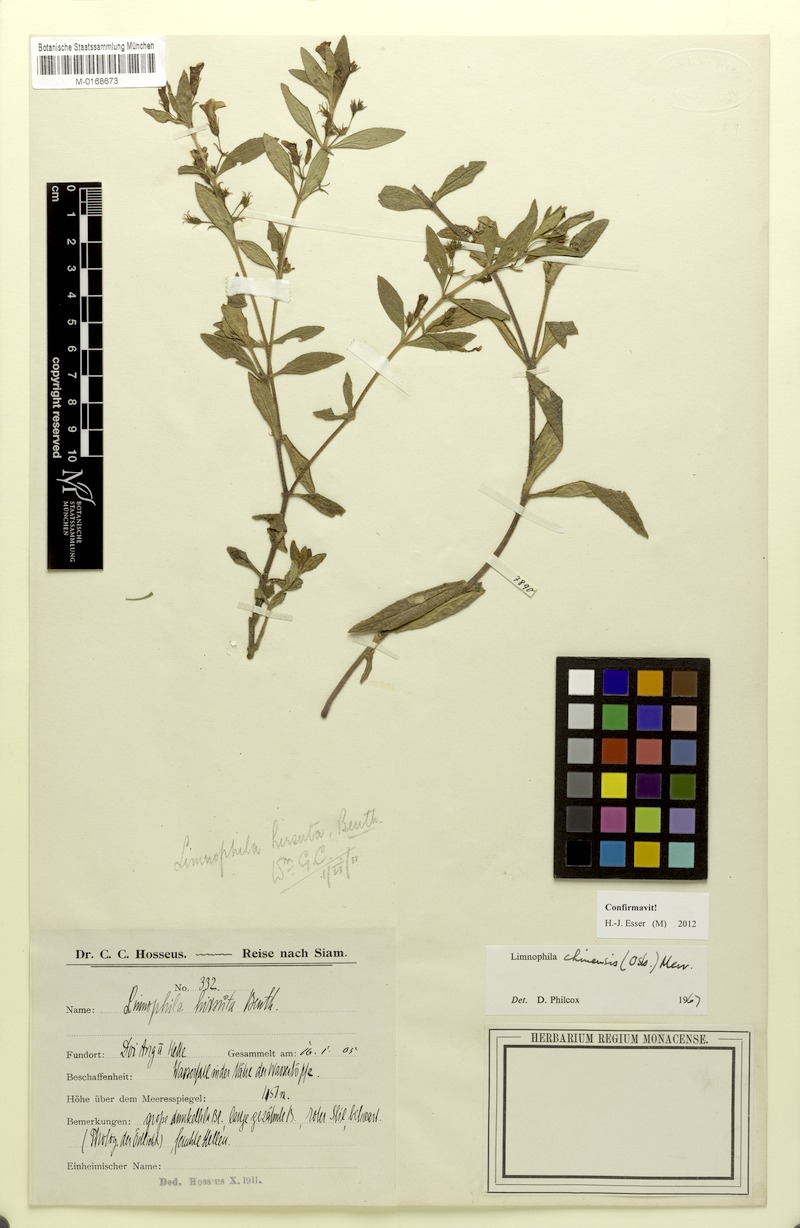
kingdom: Plantae
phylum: Tracheophyta
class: Magnoliopsida
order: Lamiales
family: Plantaginaceae
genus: Limnophila
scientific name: Limnophila chinensis
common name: Finger grass
